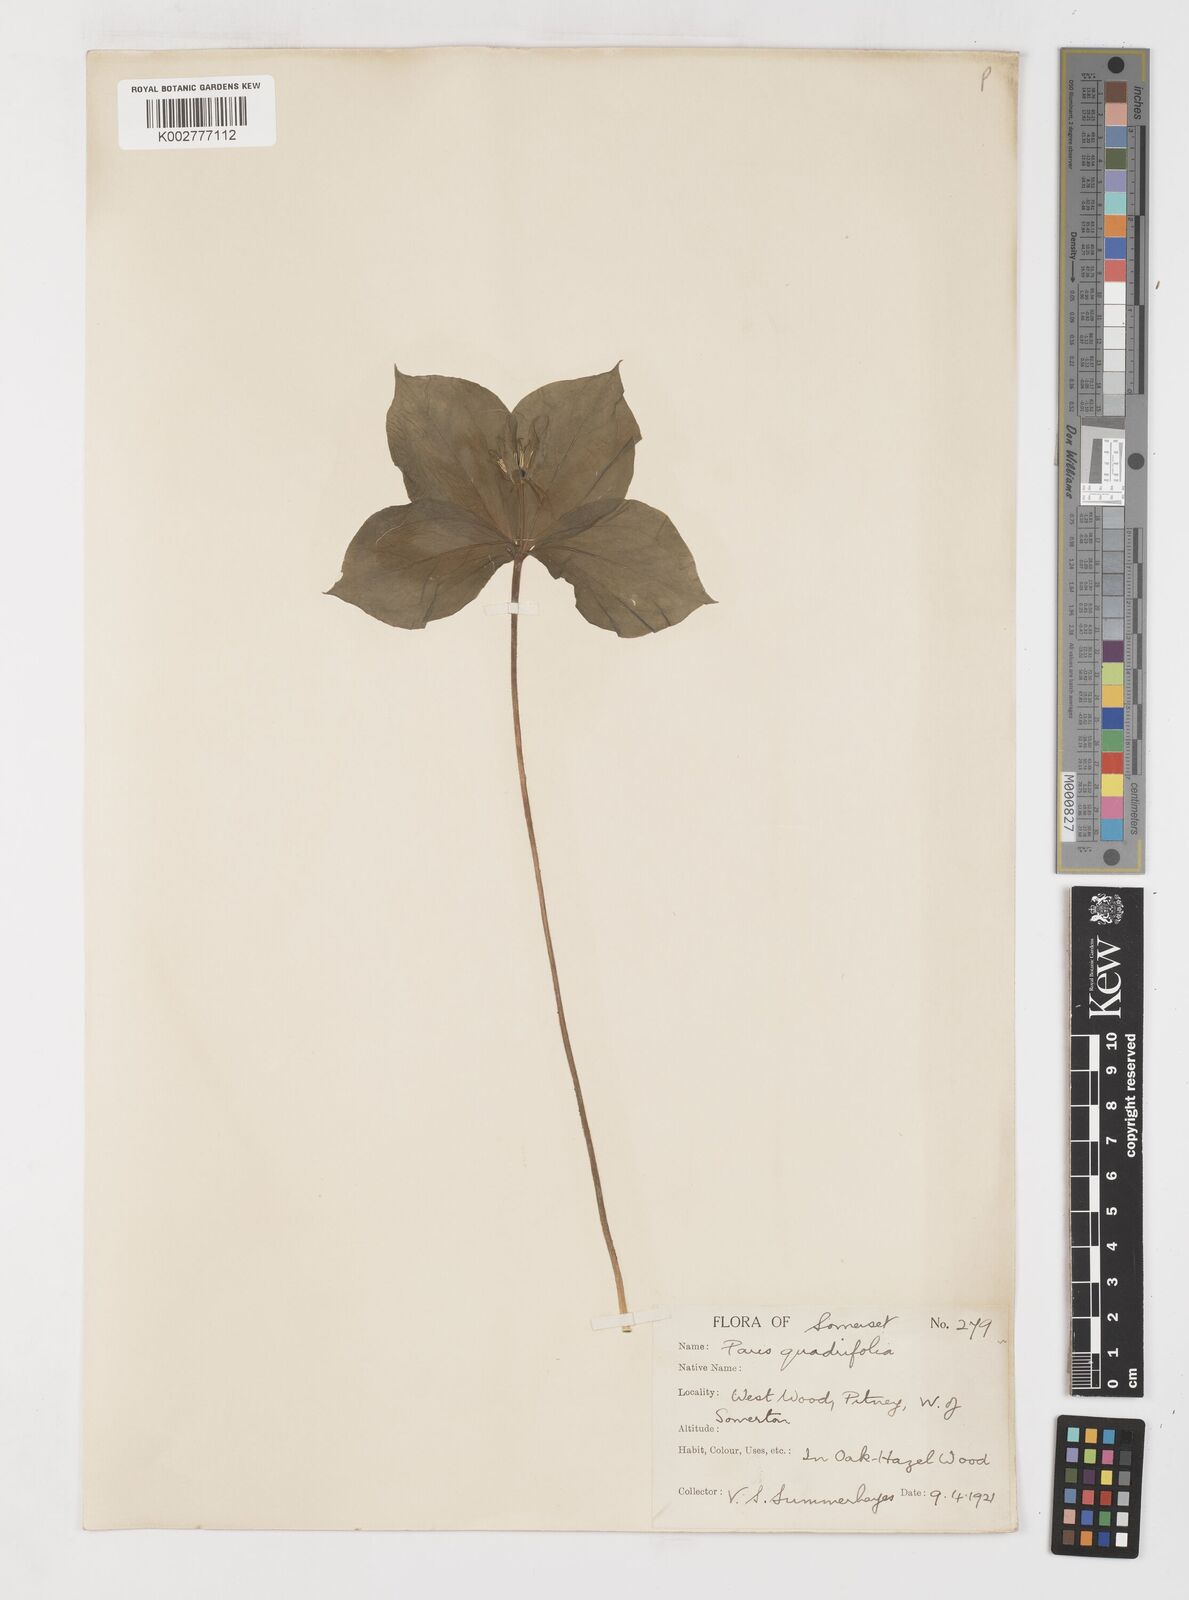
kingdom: Plantae
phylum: Tracheophyta
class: Liliopsida
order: Liliales
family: Melanthiaceae
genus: Paris
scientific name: Paris quadrifolia
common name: Herb-paris
